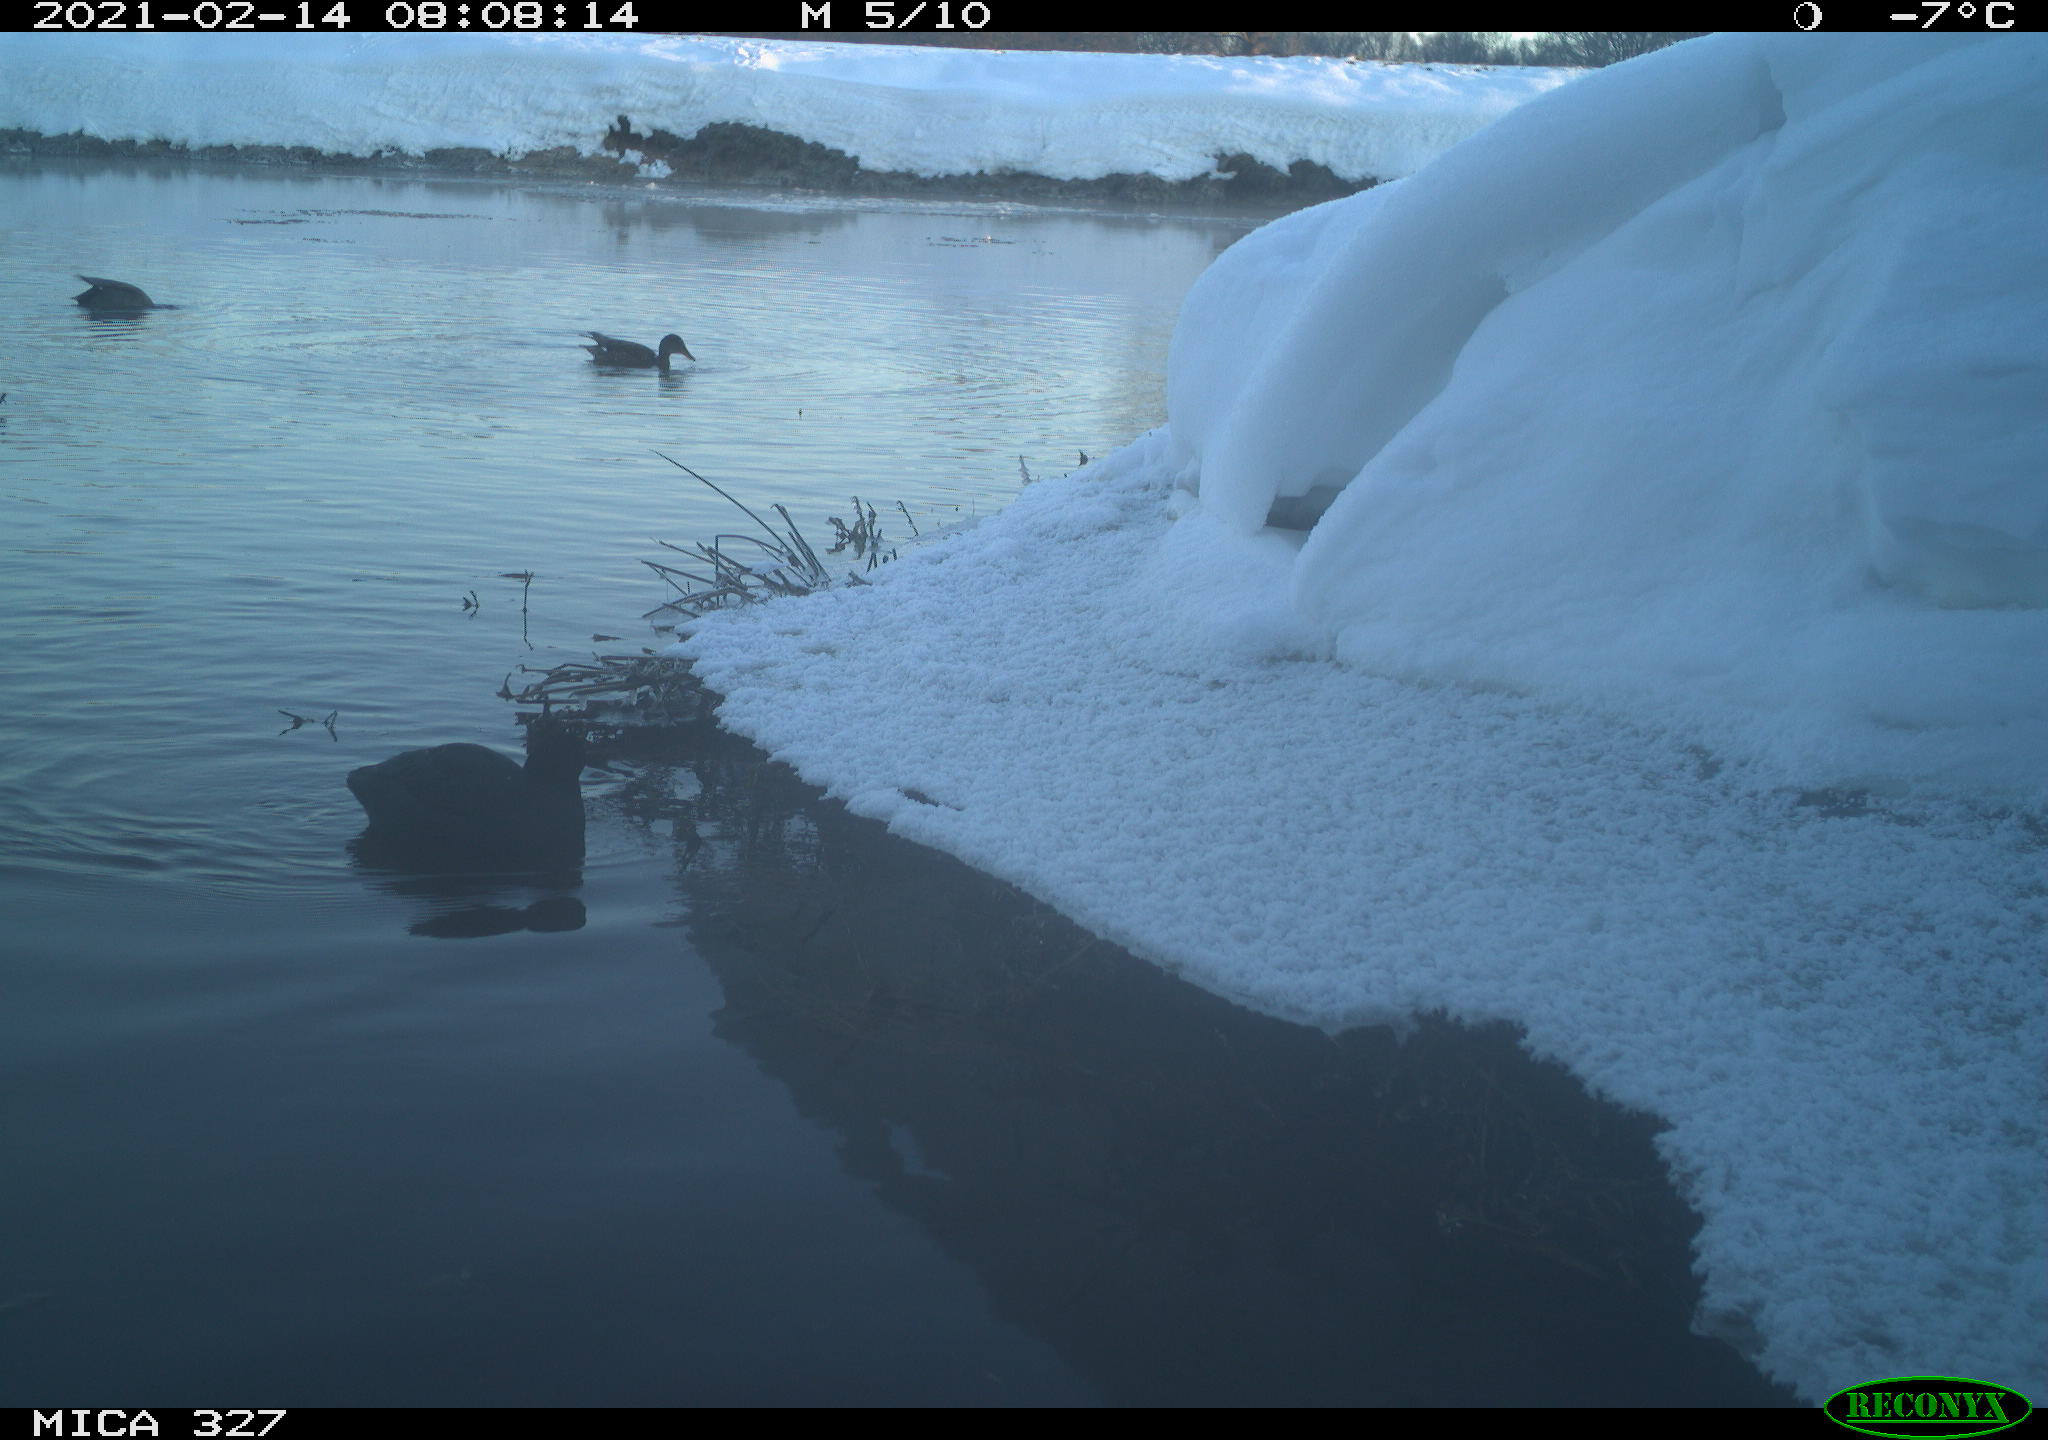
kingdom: Animalia
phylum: Chordata
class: Aves
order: Anseriformes
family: Anatidae
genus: Anas
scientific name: Anas
